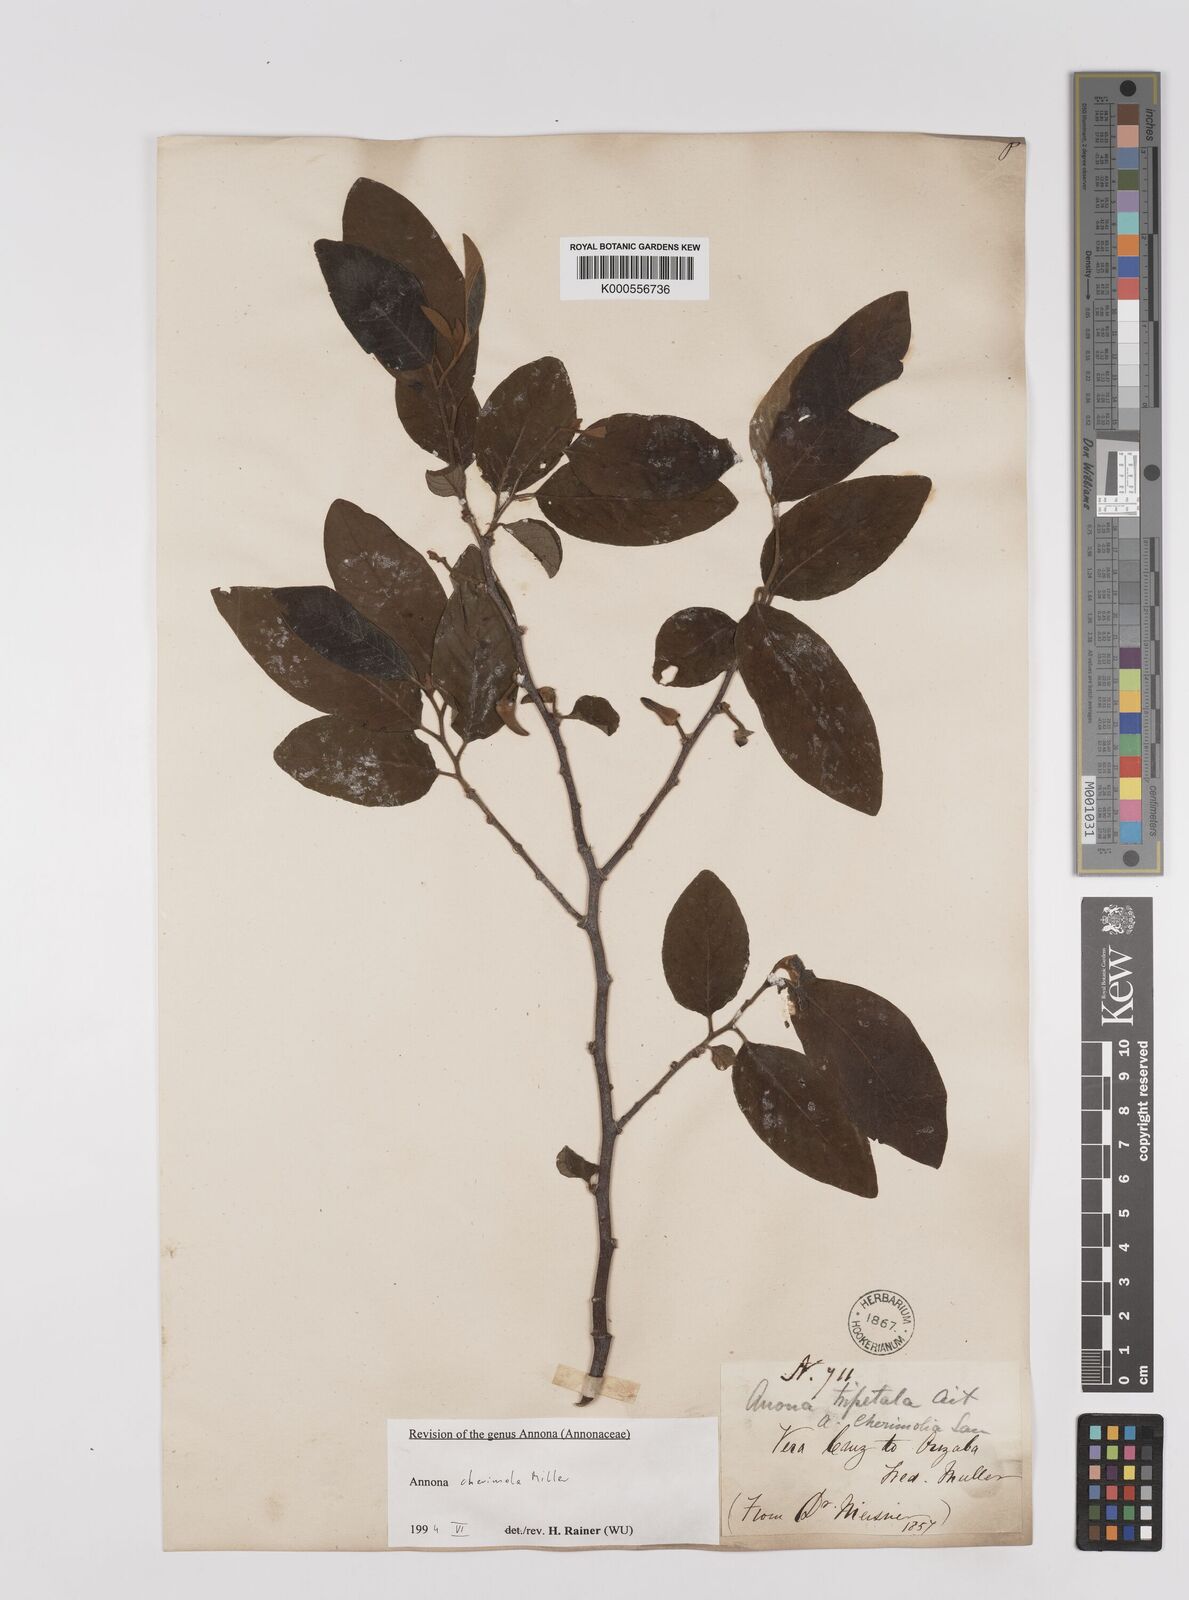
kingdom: Plantae
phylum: Tracheophyta
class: Magnoliopsida
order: Magnoliales
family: Annonaceae
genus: Annona
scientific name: Annona cherimola
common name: Cherimoya
